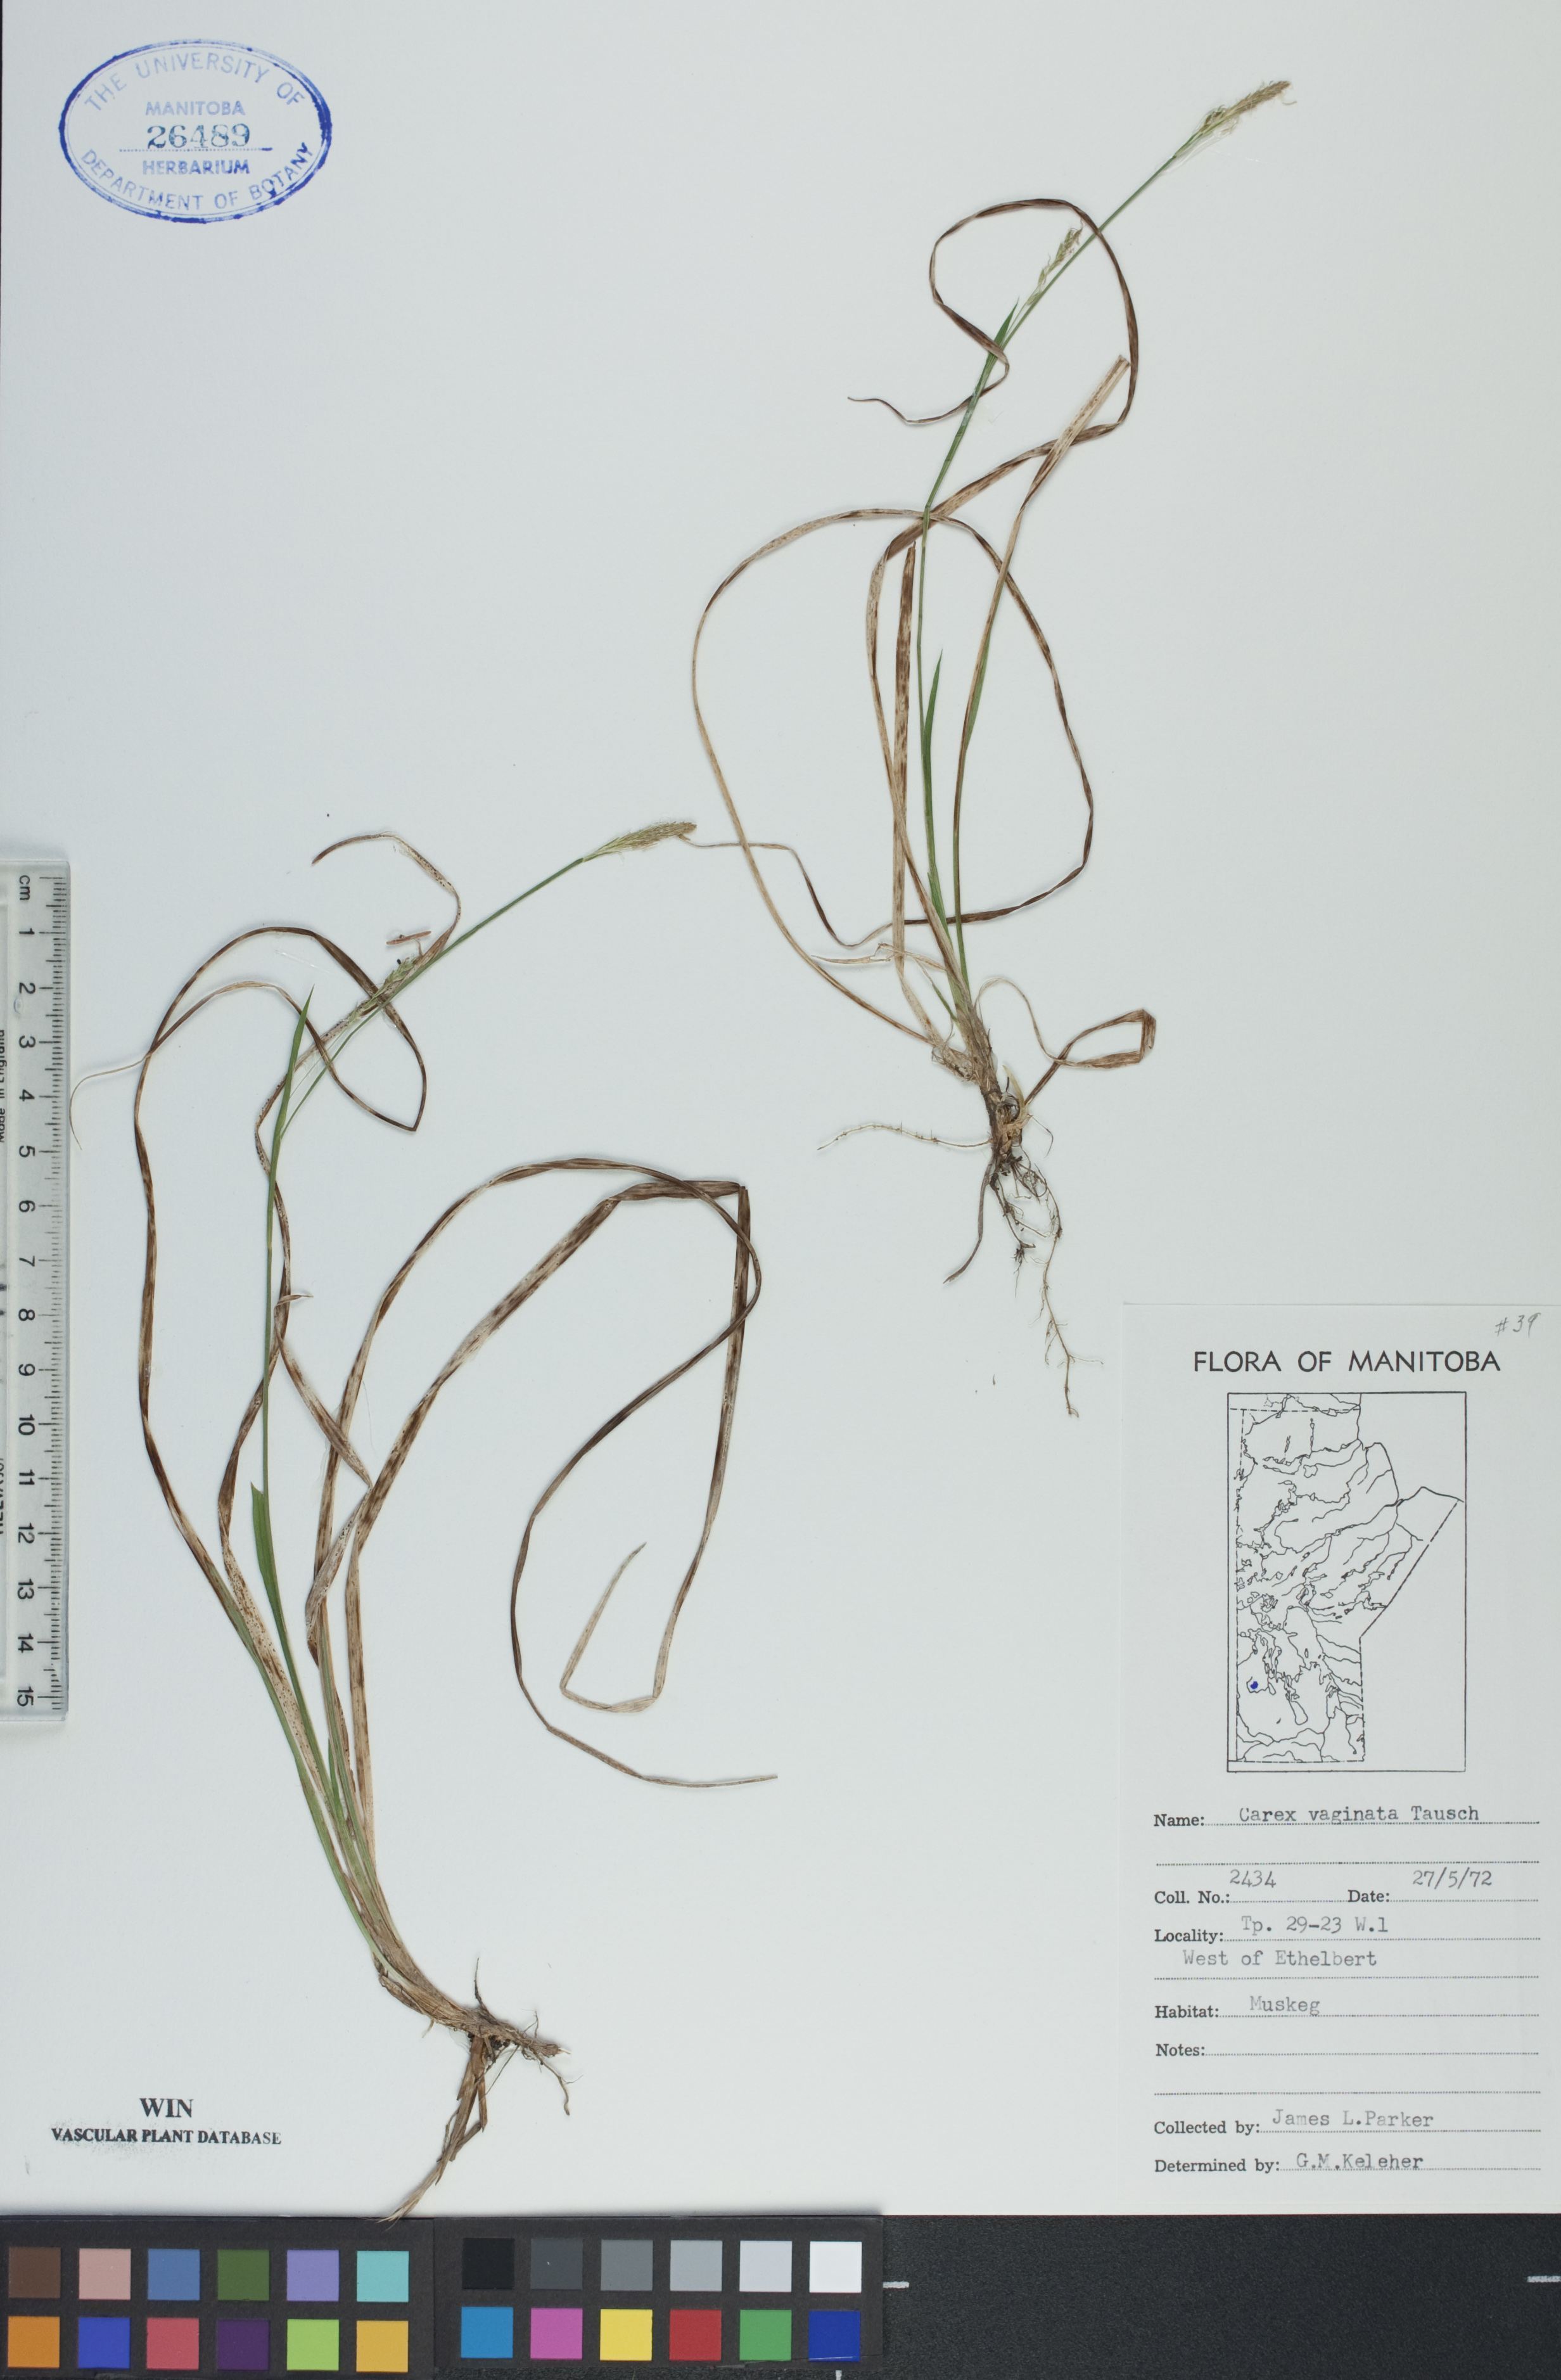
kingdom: Plantae
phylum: Tracheophyta
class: Liliopsida
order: Poales
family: Cyperaceae
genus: Carex
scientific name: Carex vaginata
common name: Sheathed sedge
